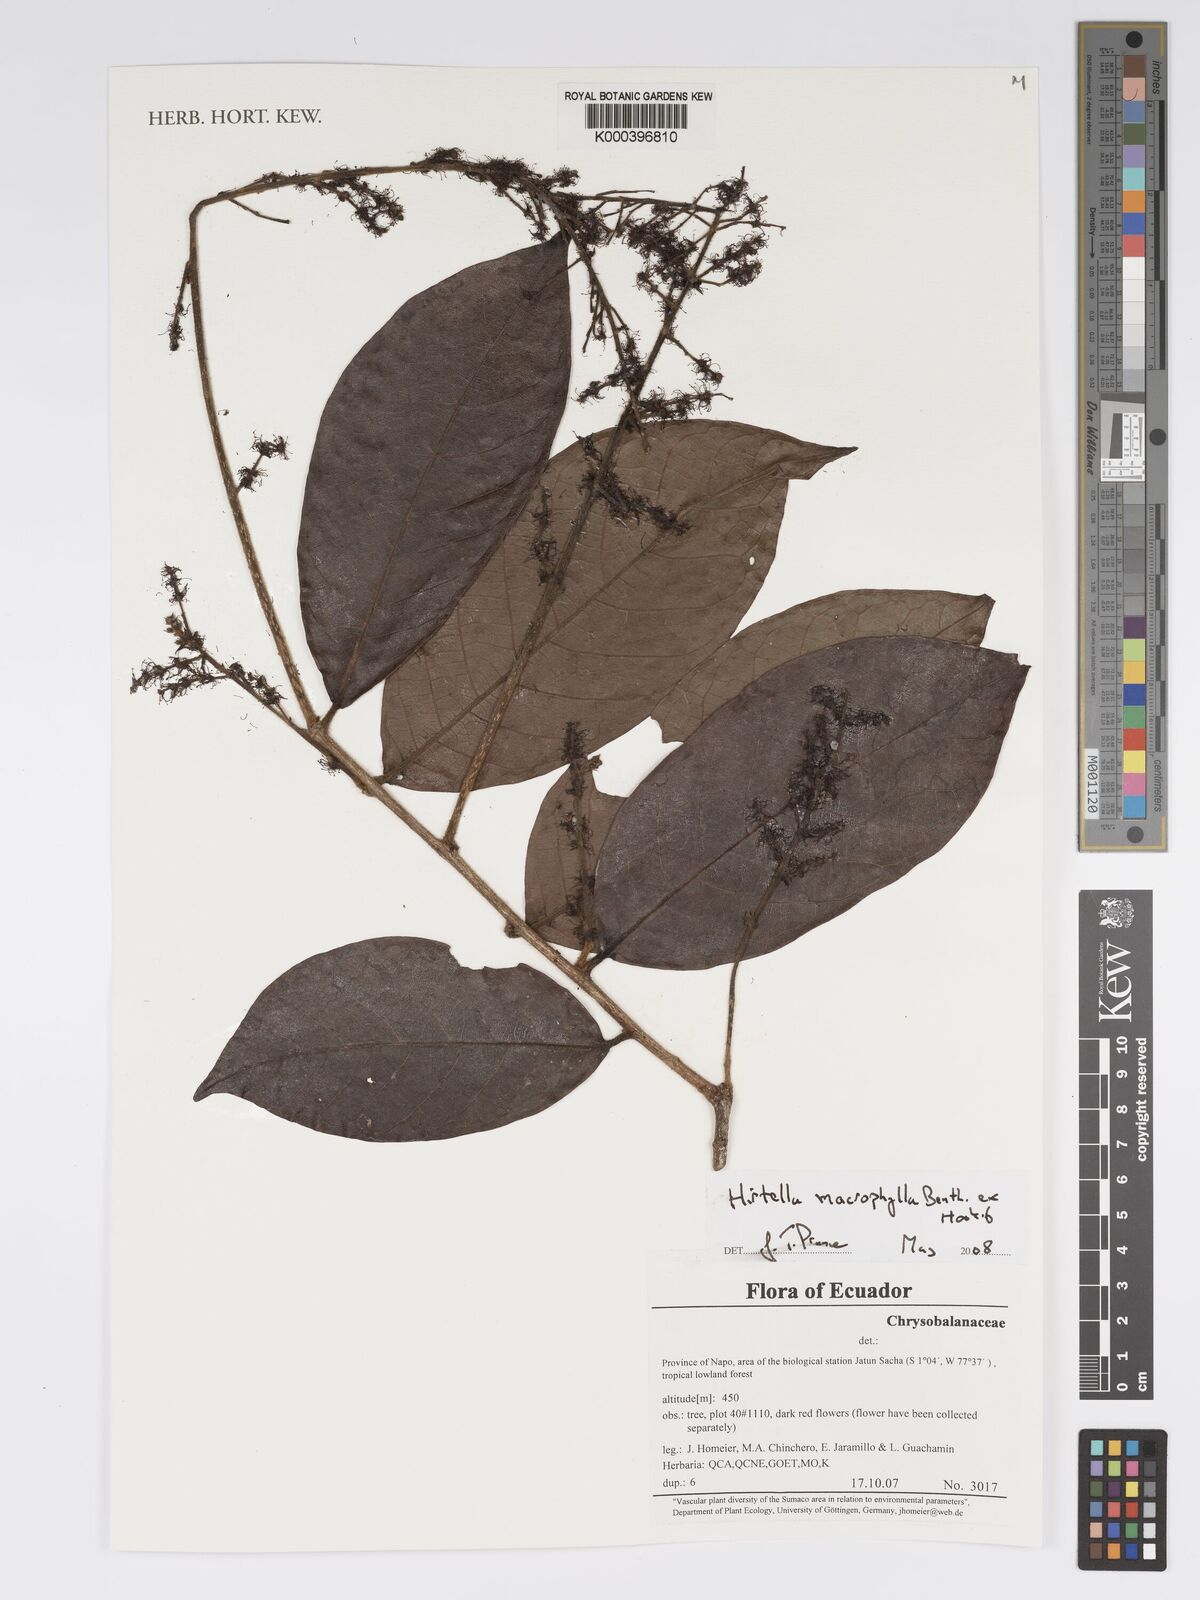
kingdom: Plantae
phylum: Tracheophyta
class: Magnoliopsida
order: Malpighiales
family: Chrysobalanaceae
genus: Hirtella
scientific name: Hirtella macrophylla
